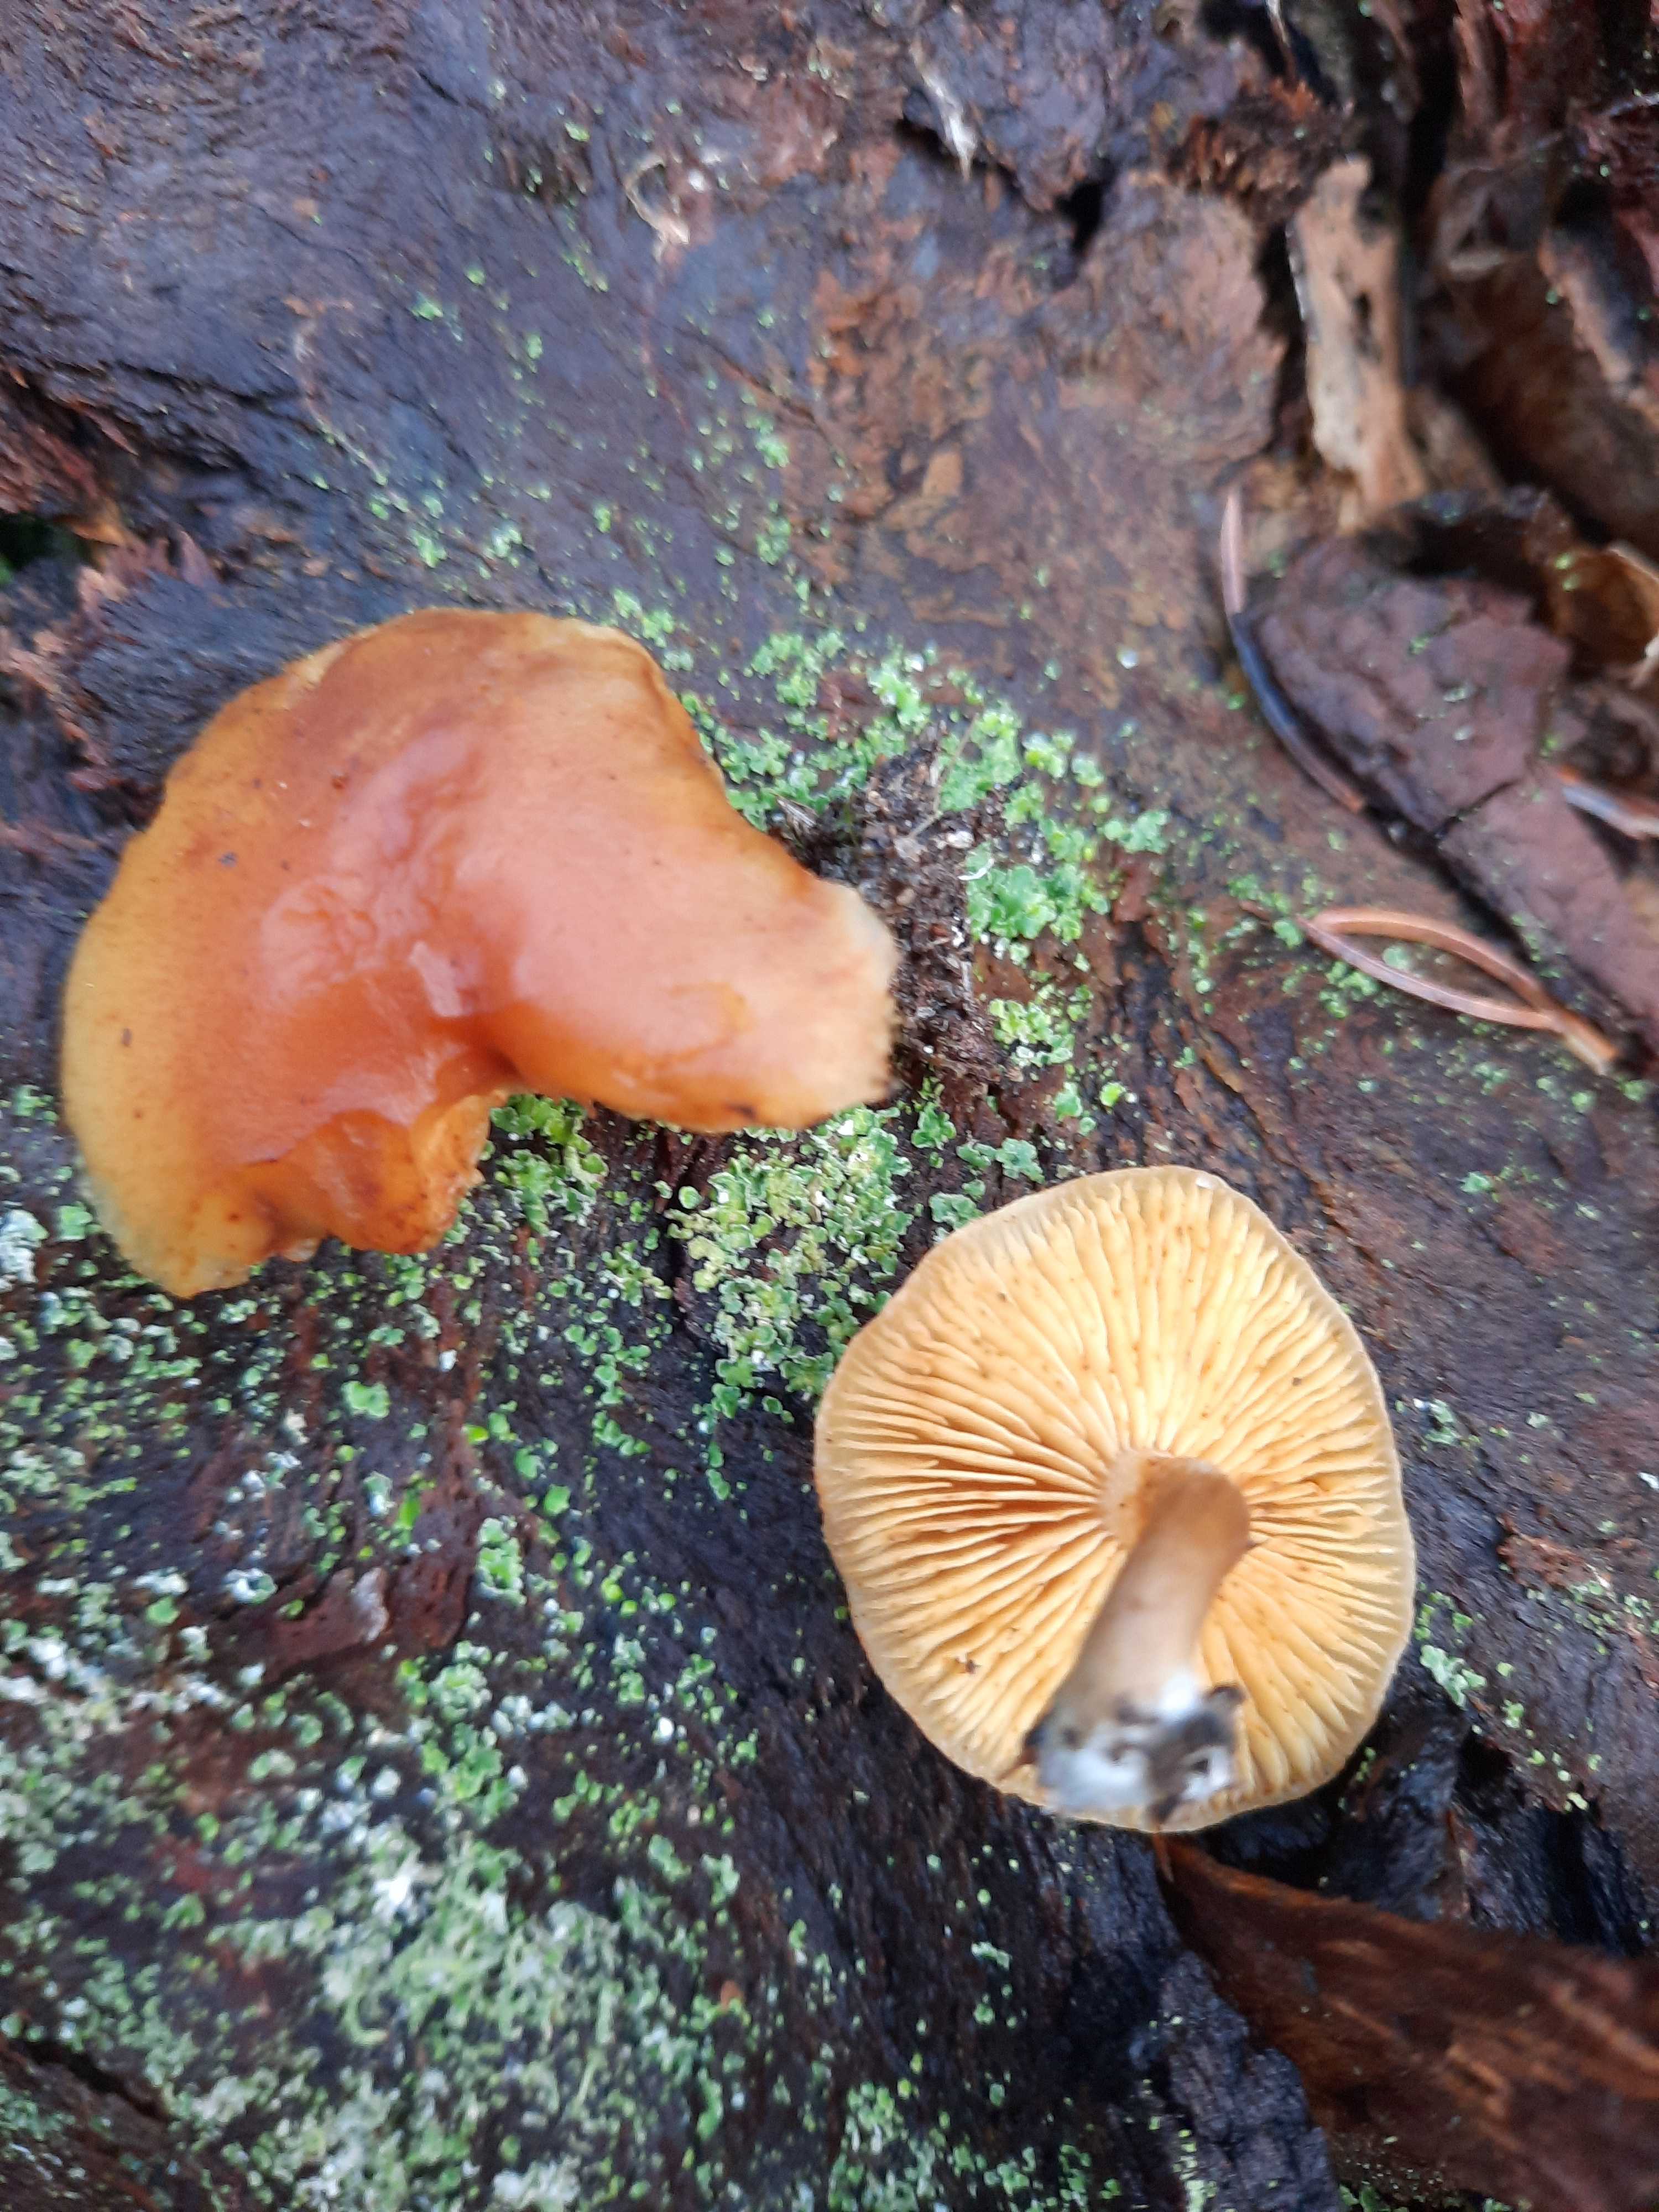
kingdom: Fungi
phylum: Basidiomycota
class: Agaricomycetes
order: Agaricales
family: Hymenogastraceae
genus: Gymnopilus
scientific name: Gymnopilus penetrans
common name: plettet flammehat
